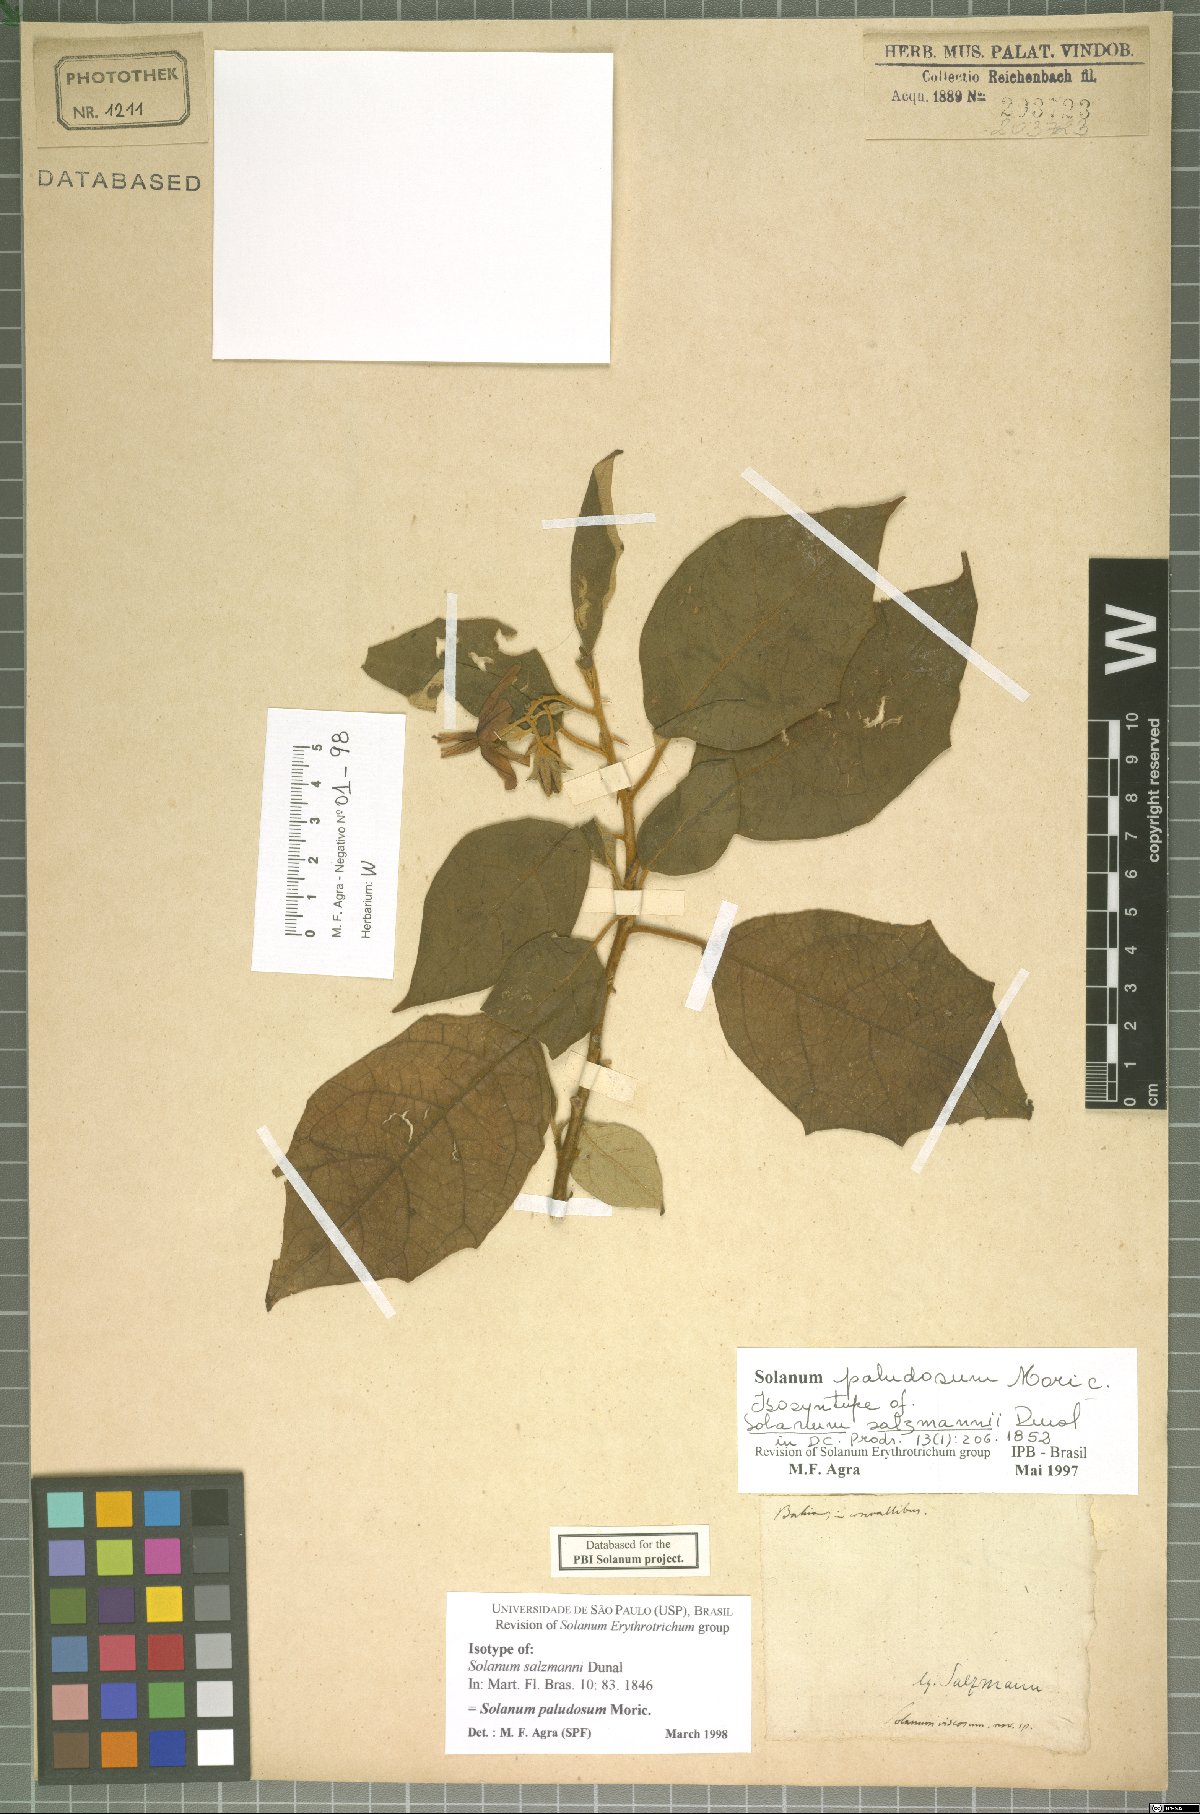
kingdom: Plantae
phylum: Tracheophyta
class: Magnoliopsida
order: Solanales
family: Solanaceae
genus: Solanum
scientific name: Solanum paludosum
